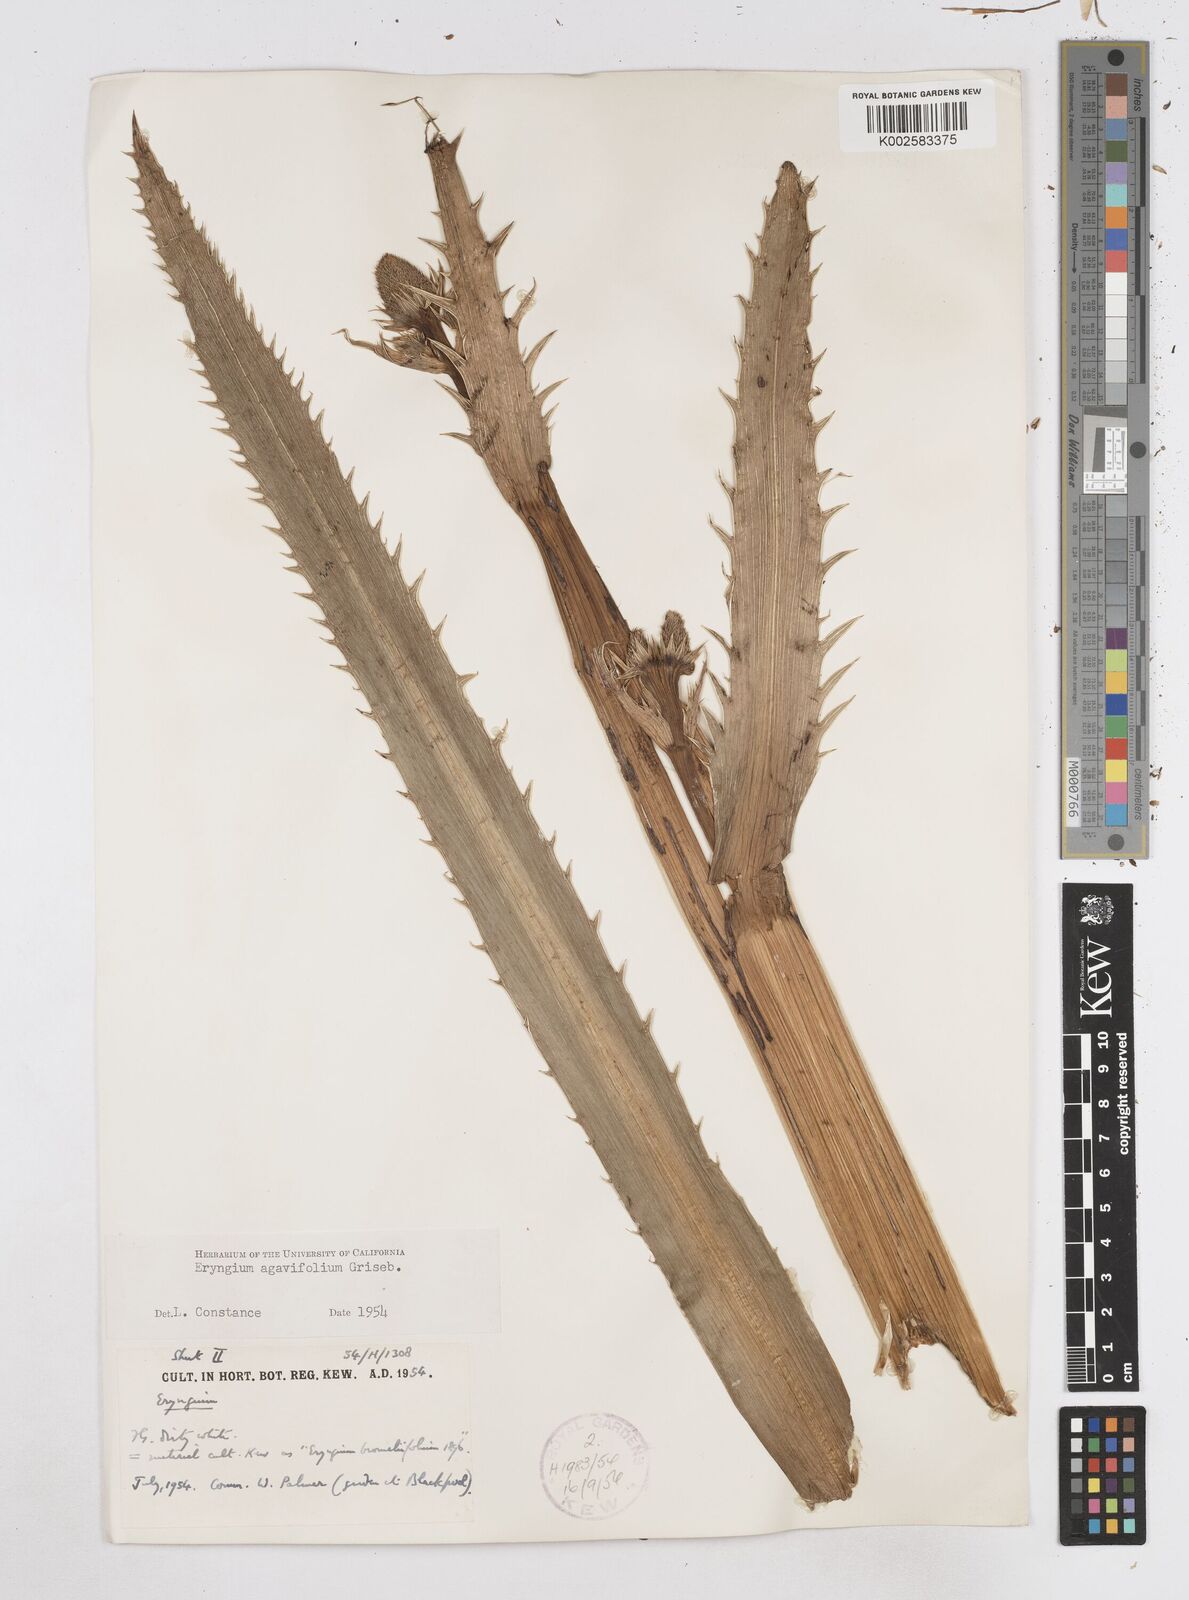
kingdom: Plantae
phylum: Tracheophyta
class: Magnoliopsida
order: Apiales
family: Apiaceae
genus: Eryngium
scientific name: Eryngium agavifolium
